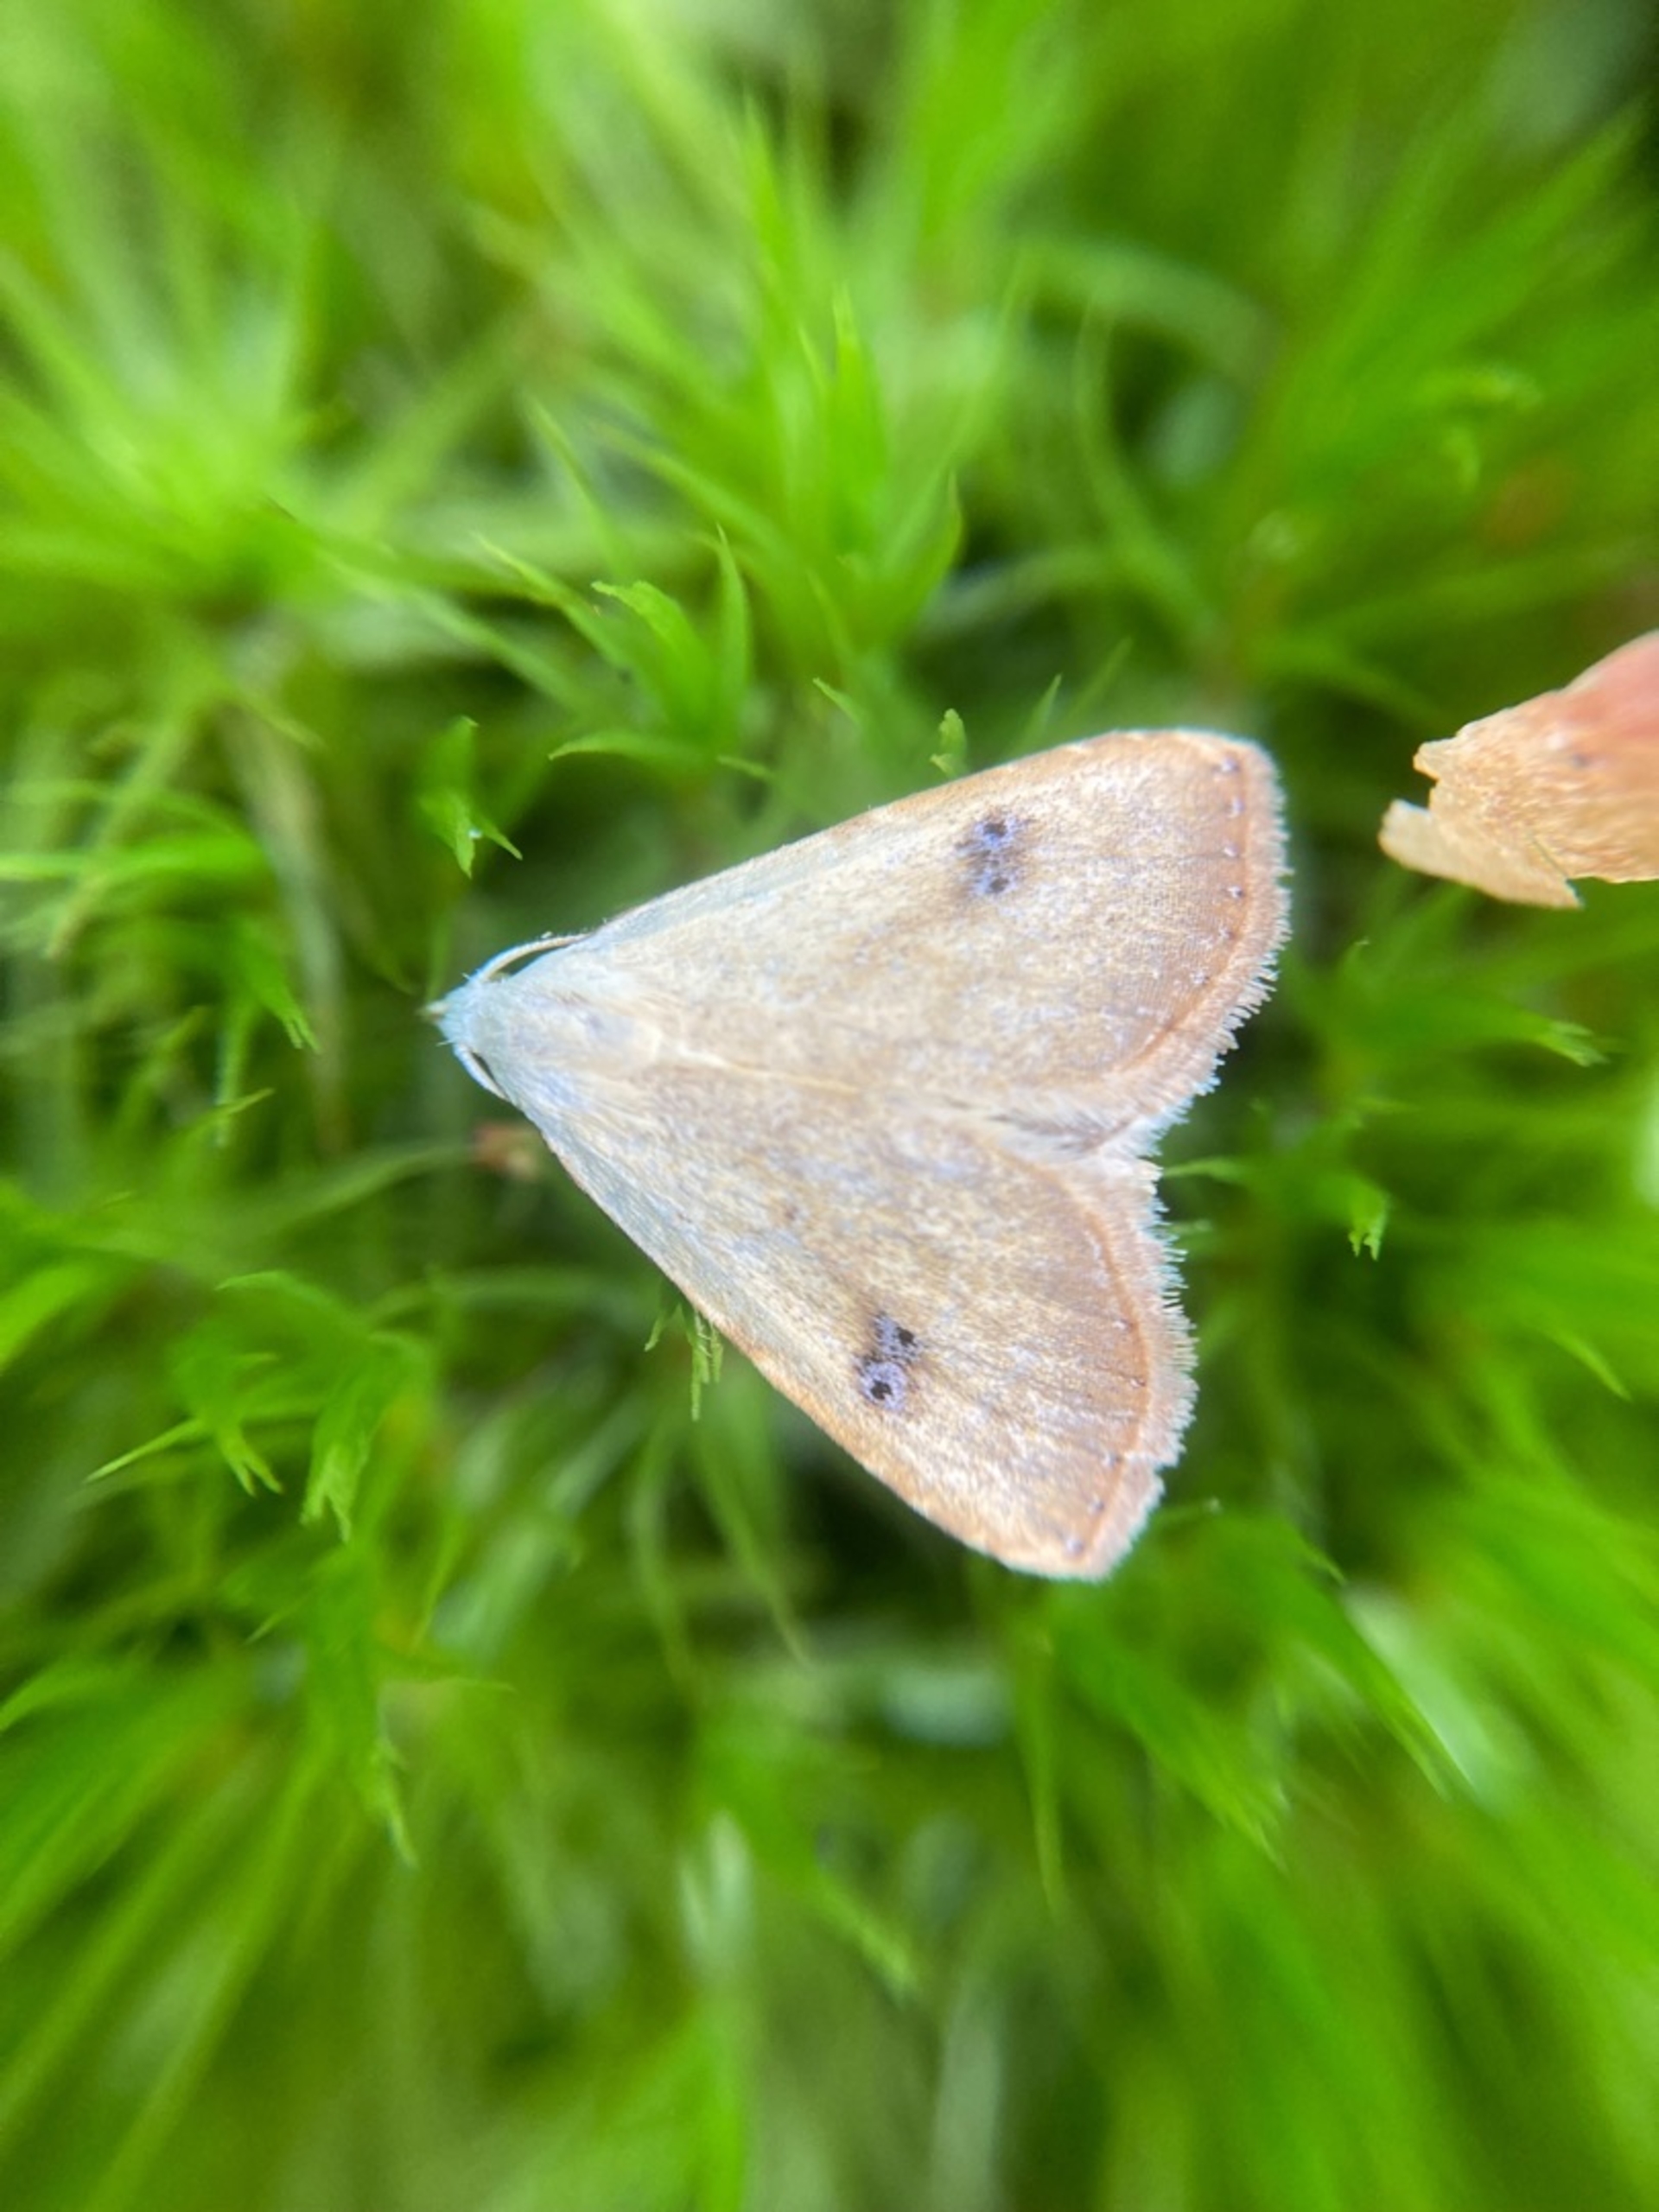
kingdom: Animalia
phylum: Arthropoda
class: Insecta
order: Lepidoptera
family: Erebidae
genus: Rivula
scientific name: Rivula sericealis
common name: Lille å-ugle
